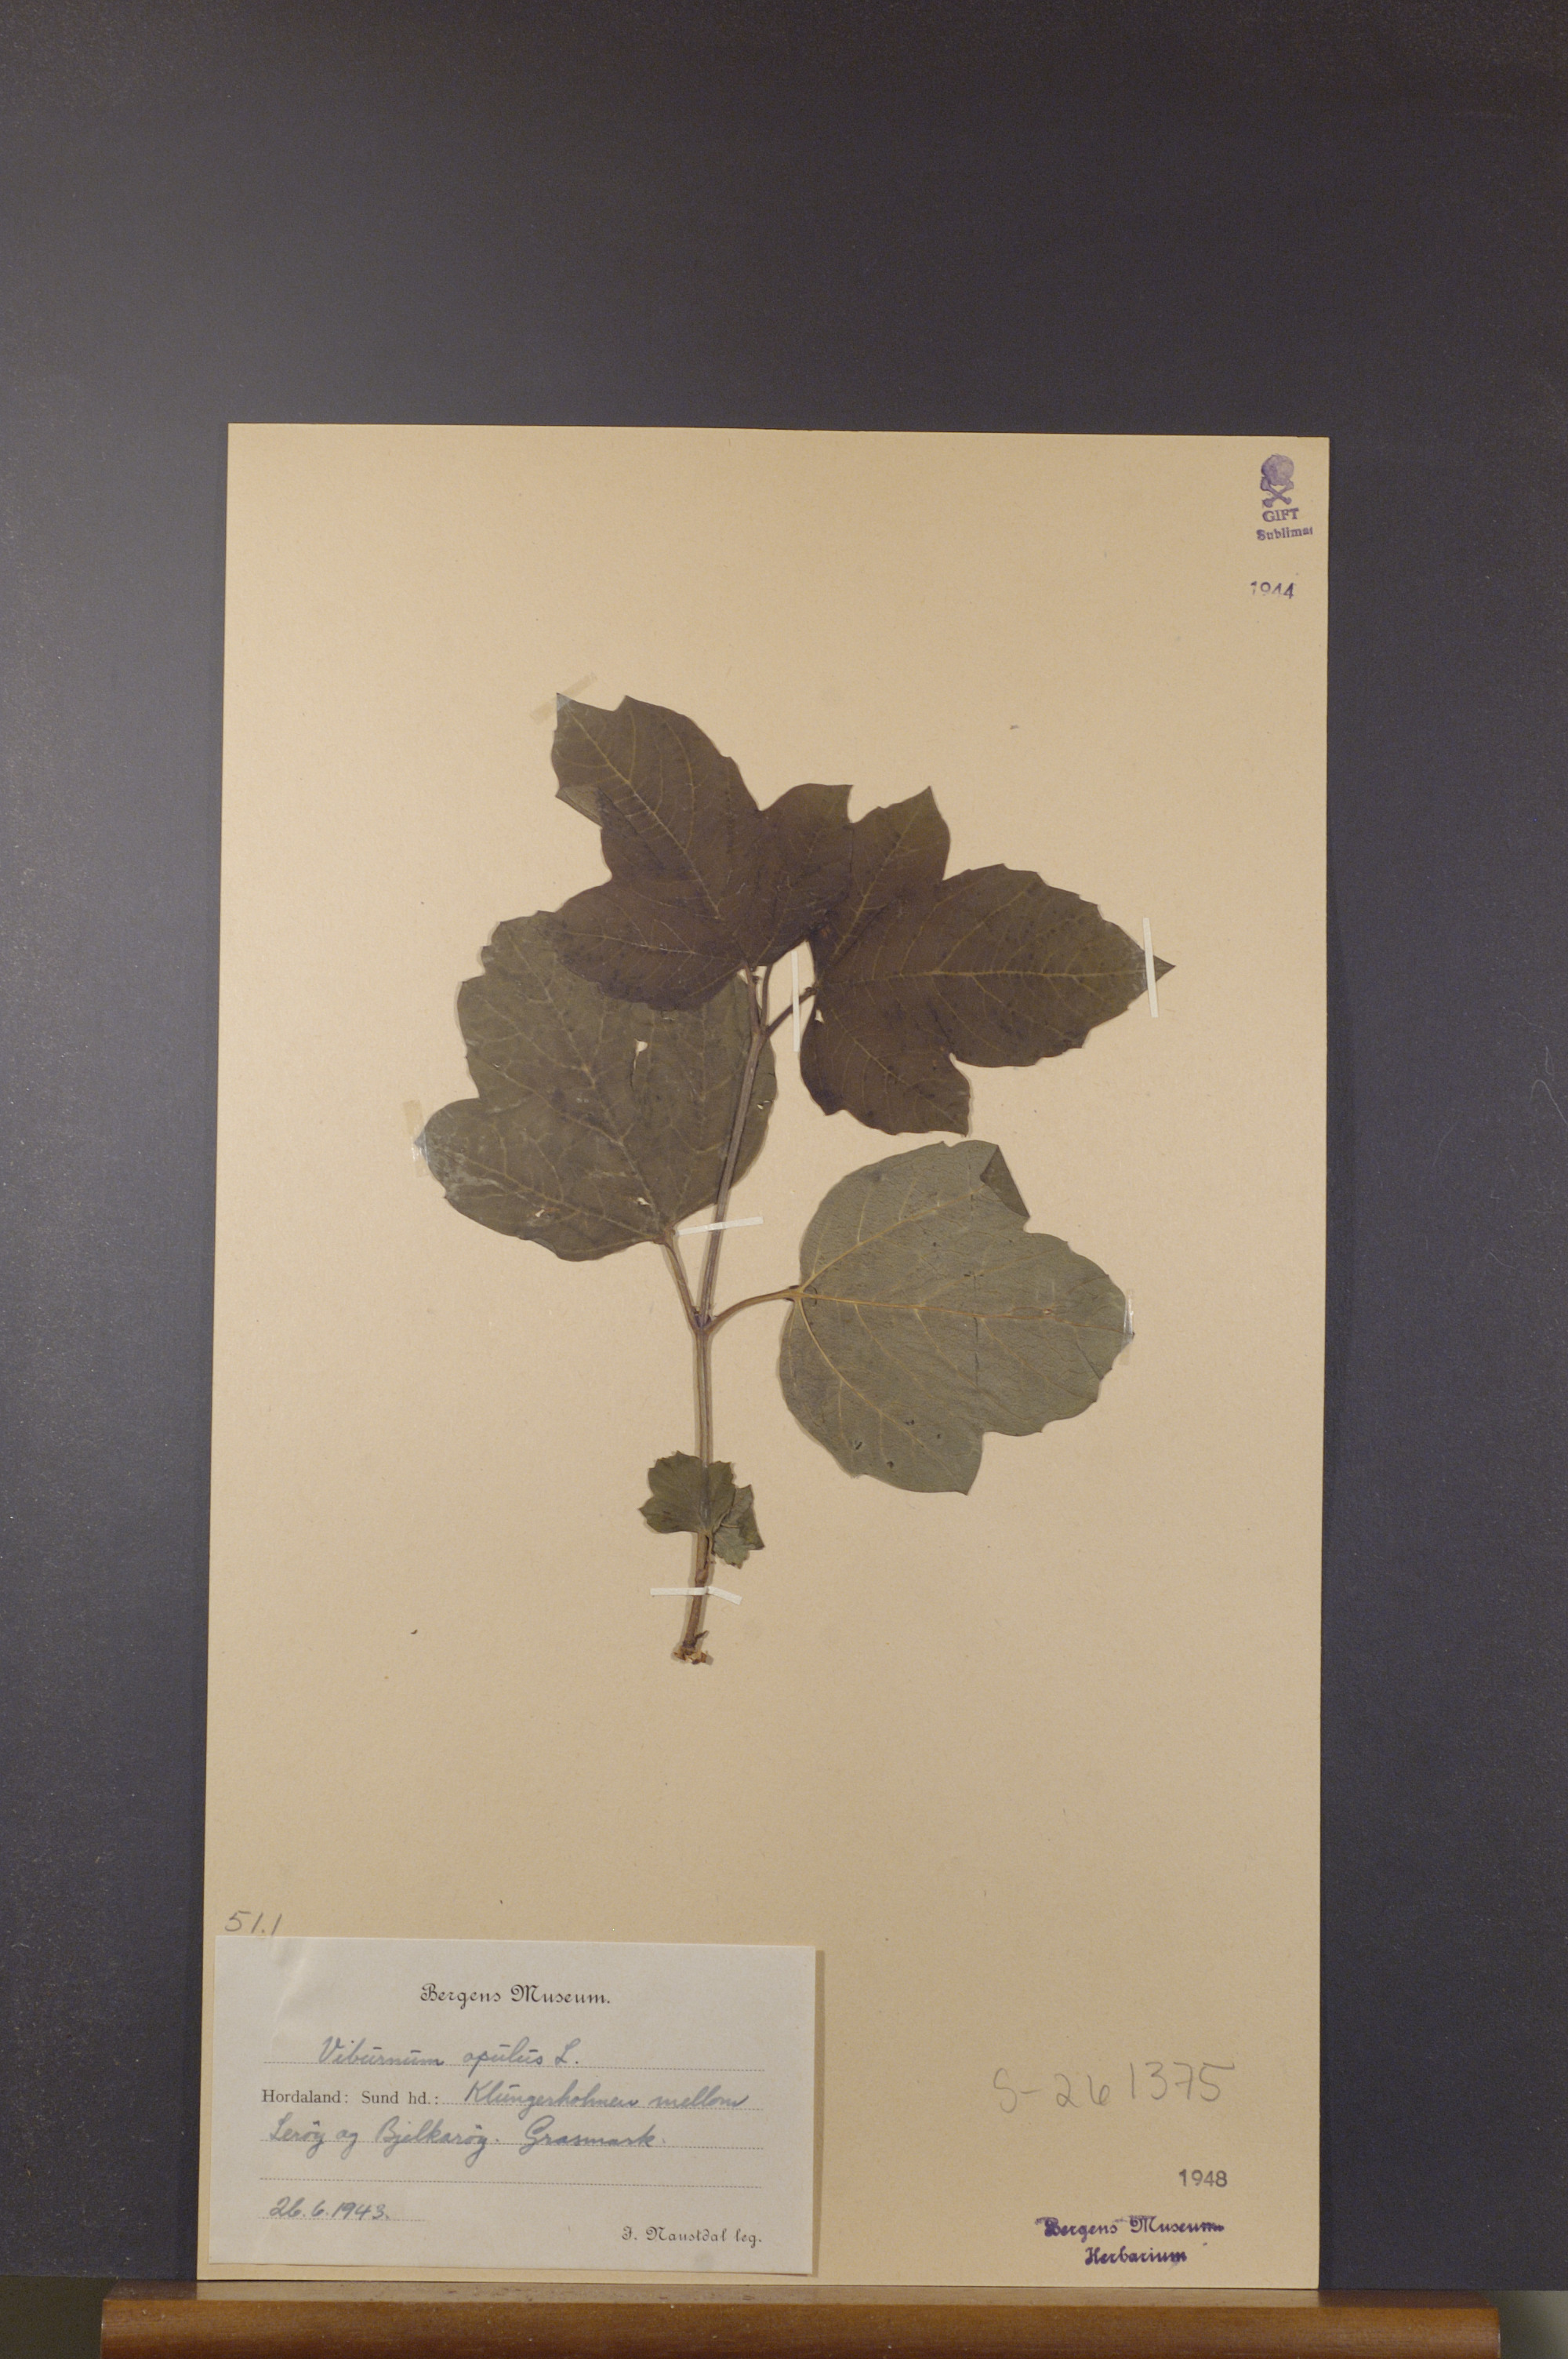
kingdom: Plantae
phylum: Tracheophyta
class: Magnoliopsida
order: Dipsacales
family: Viburnaceae
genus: Viburnum
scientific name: Viburnum opulus
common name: Guelder-rose
